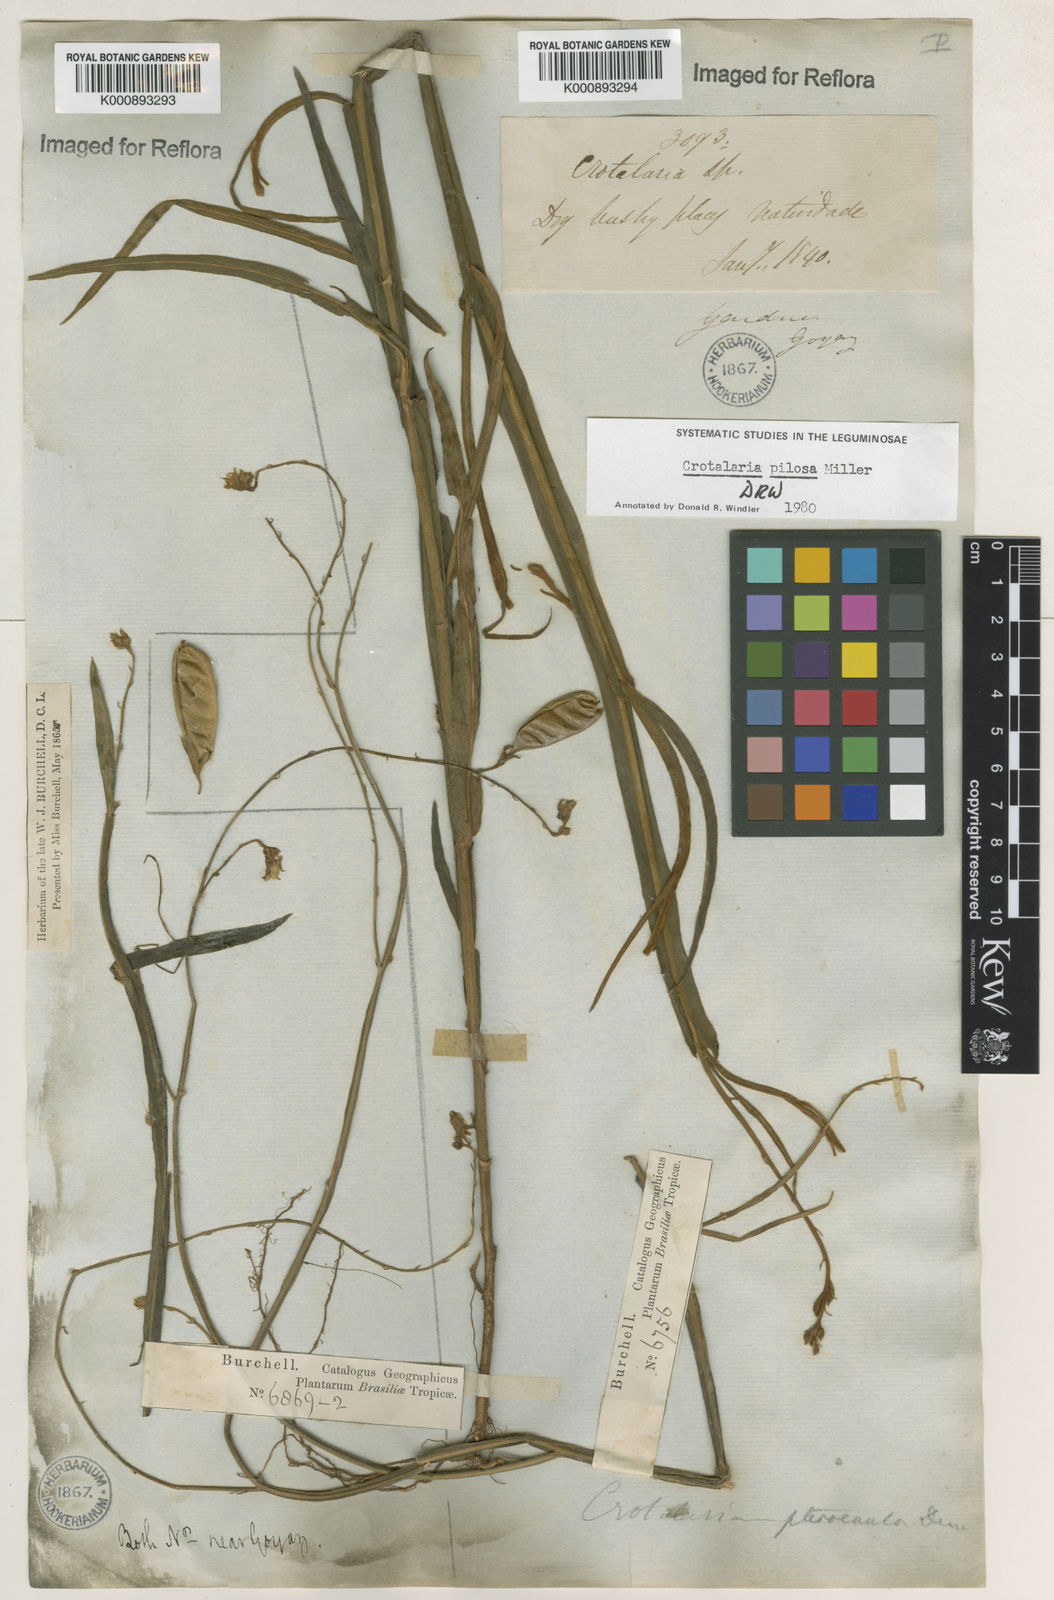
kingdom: Plantae
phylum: Tracheophyta
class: Magnoliopsida
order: Fabales
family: Fabaceae
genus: Crotalaria
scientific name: Crotalaria pilosa
